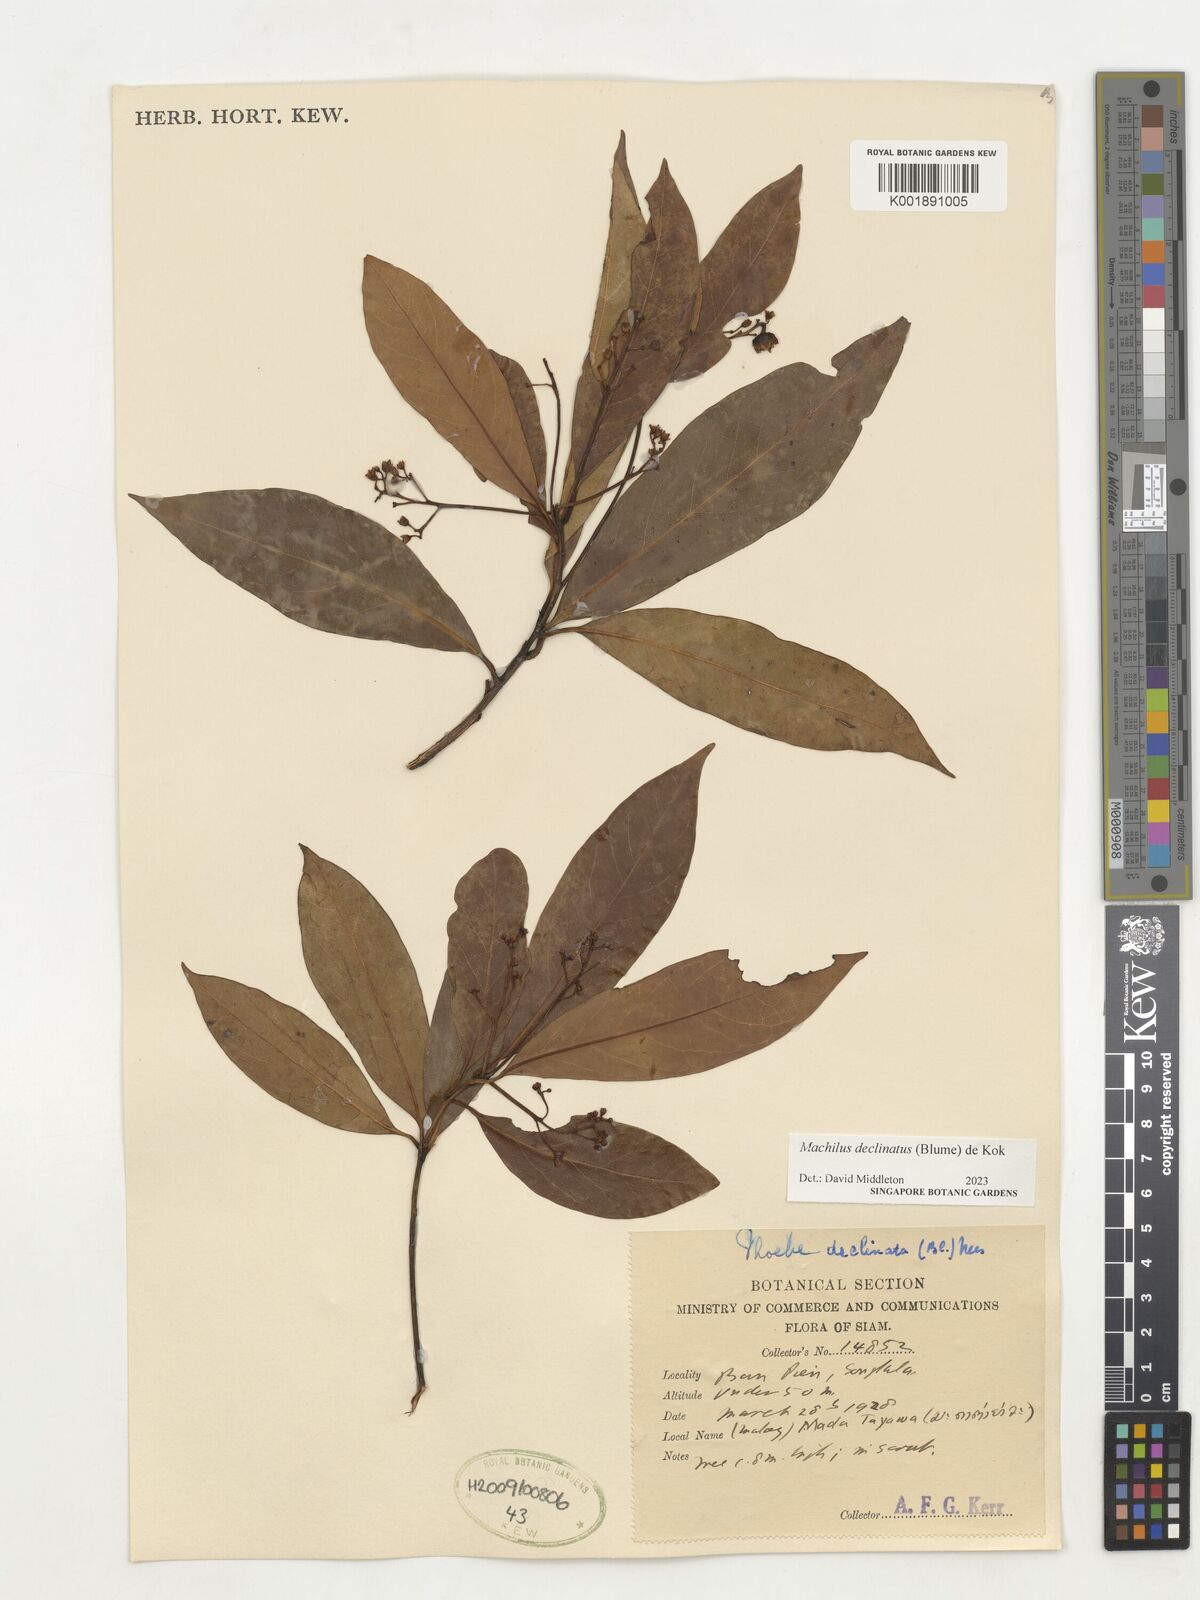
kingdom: Plantae
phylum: Tracheophyta
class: Magnoliopsida
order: Laurales
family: Lauraceae
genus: Machilus
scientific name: Machilus declinata
